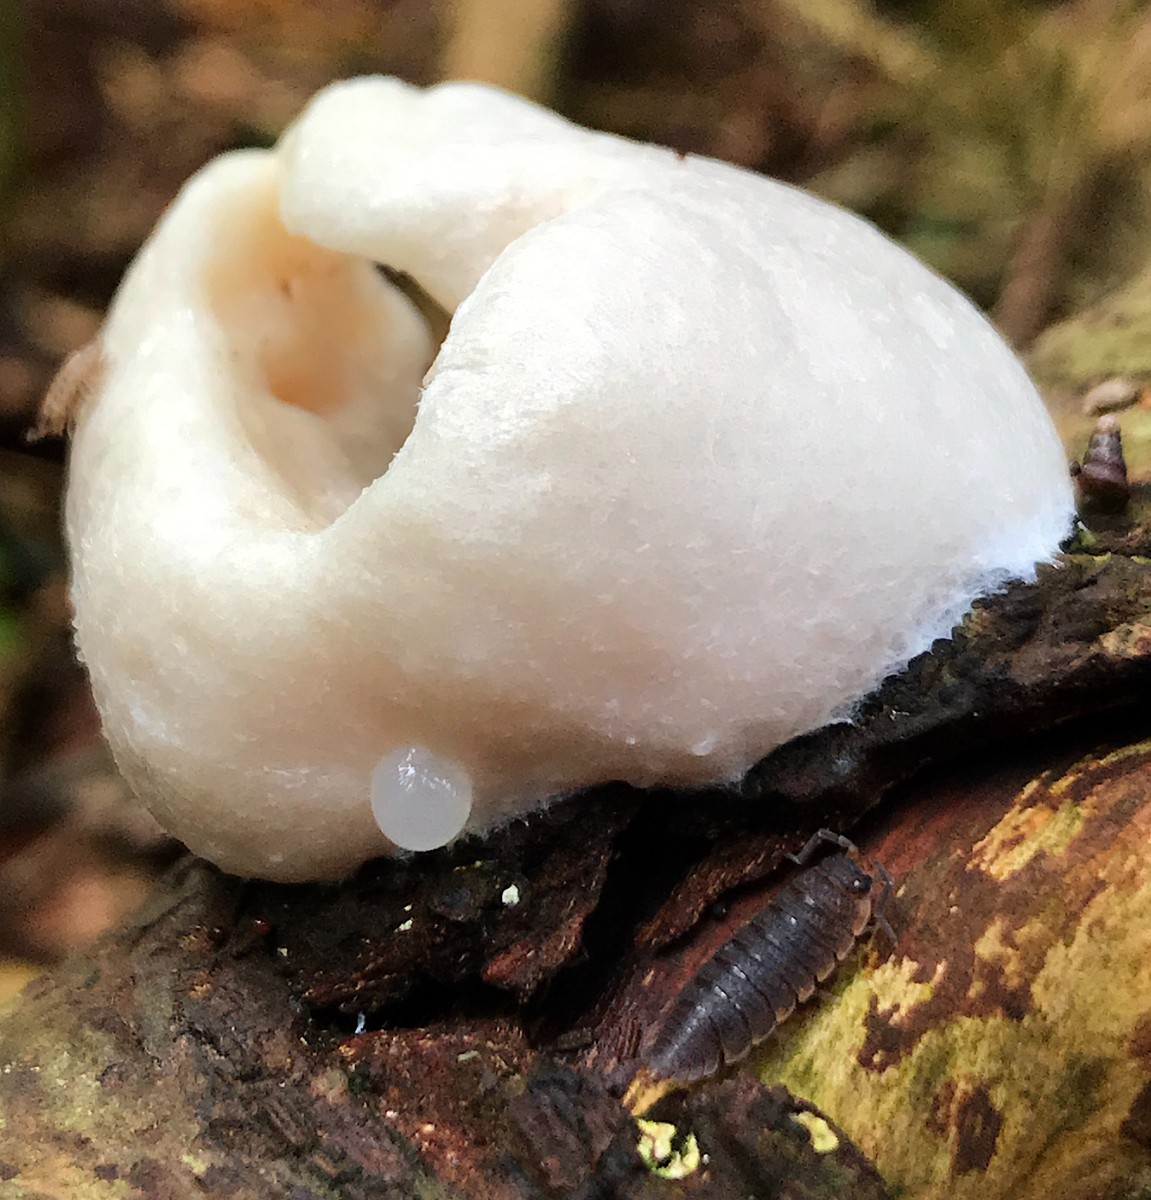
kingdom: Protozoa
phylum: Mycetozoa
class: Myxomycetes
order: Cribrariales
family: Tubiferaceae
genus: Reticularia
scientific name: Reticularia lycoperdon
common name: skinnende støvpude
